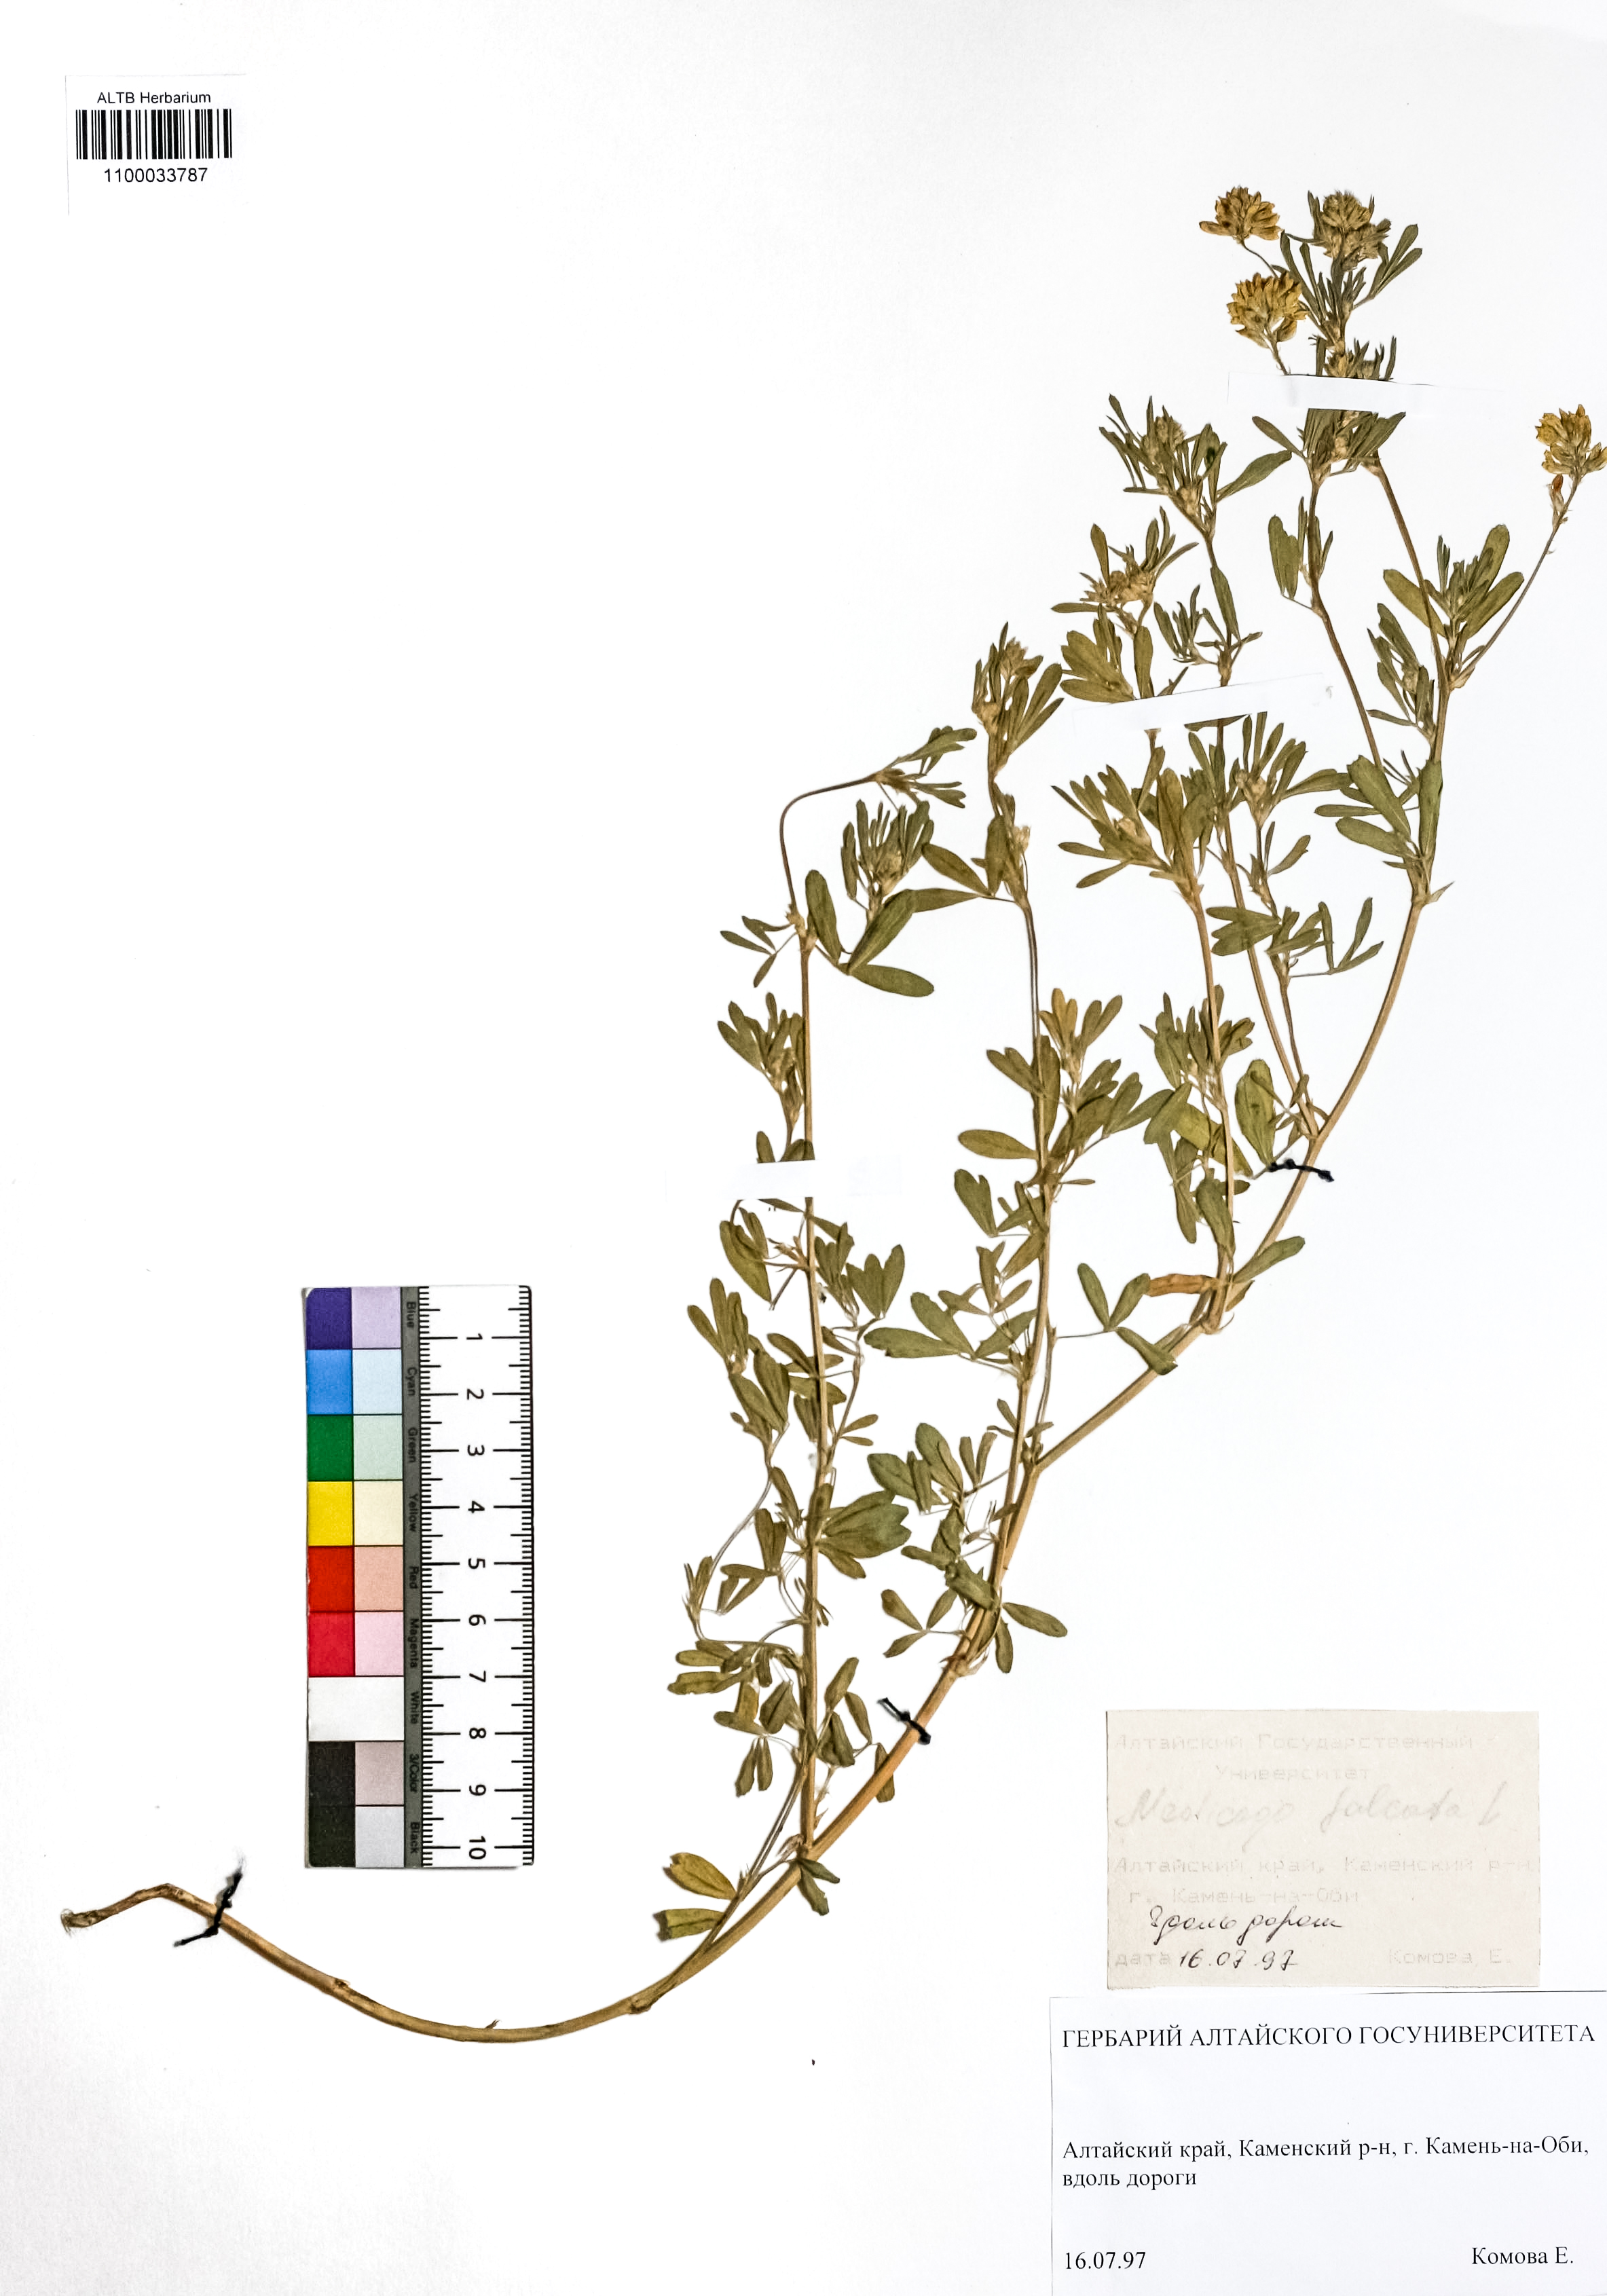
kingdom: Plantae
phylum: Tracheophyta
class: Magnoliopsida
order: Fabales
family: Fabaceae
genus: Medicago
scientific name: Medicago falcata
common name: Sickle medick
